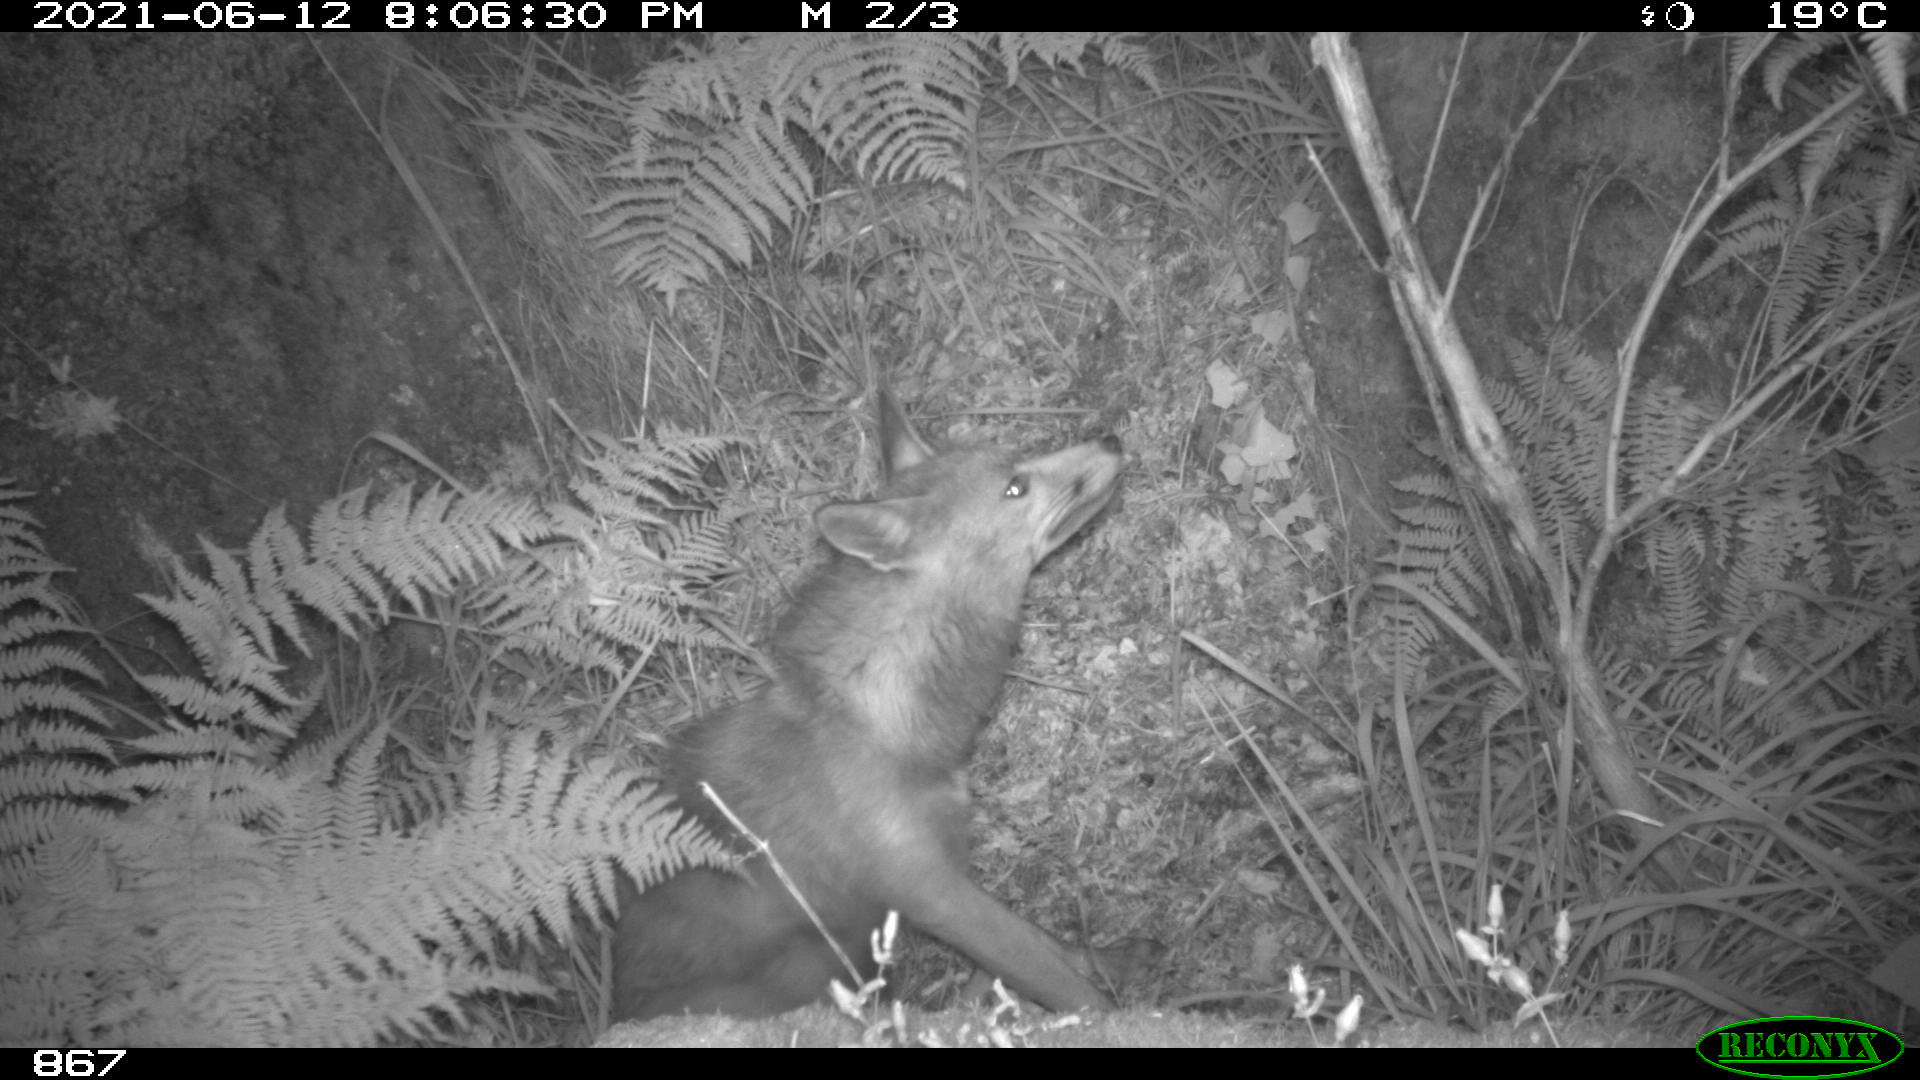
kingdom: Animalia
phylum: Chordata
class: Mammalia
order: Carnivora
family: Canidae
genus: Vulpes
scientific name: Vulpes vulpes
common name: Red fox
